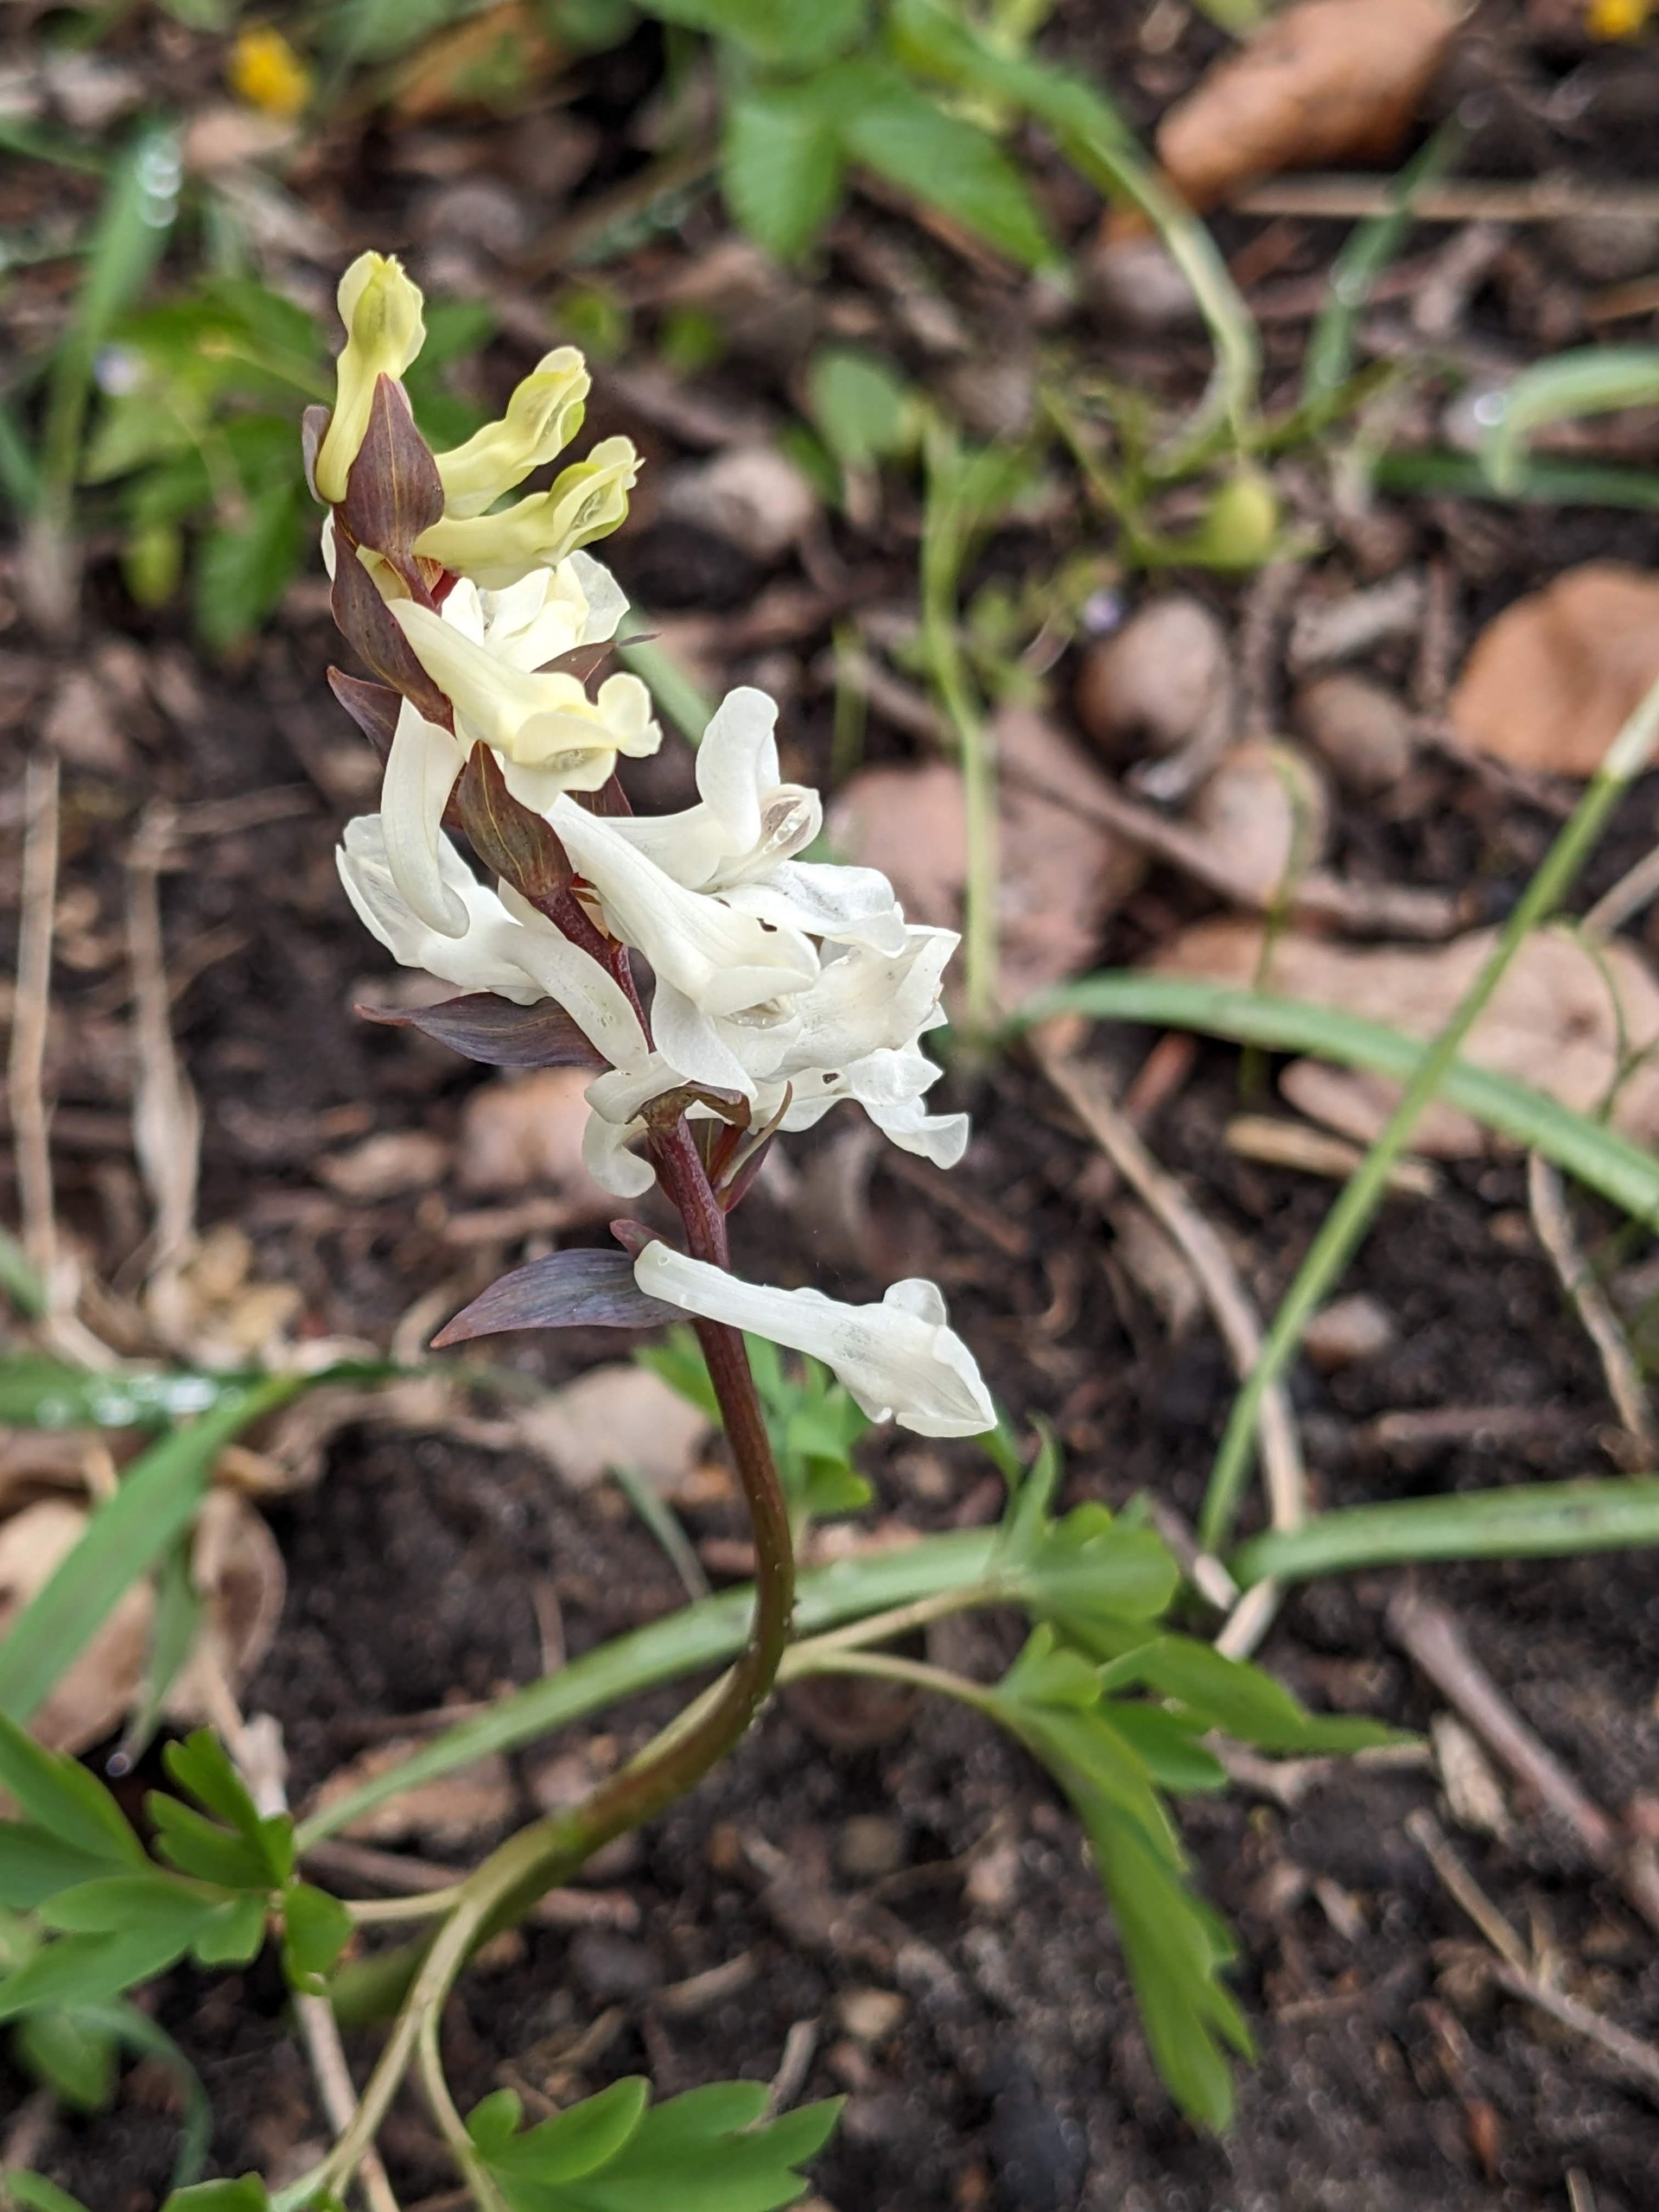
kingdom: Plantae
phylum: Tracheophyta
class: Magnoliopsida
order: Ranunculales
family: Papaveraceae
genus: Corydalis
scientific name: Corydalis cava
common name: Hulrodet lærkespore
